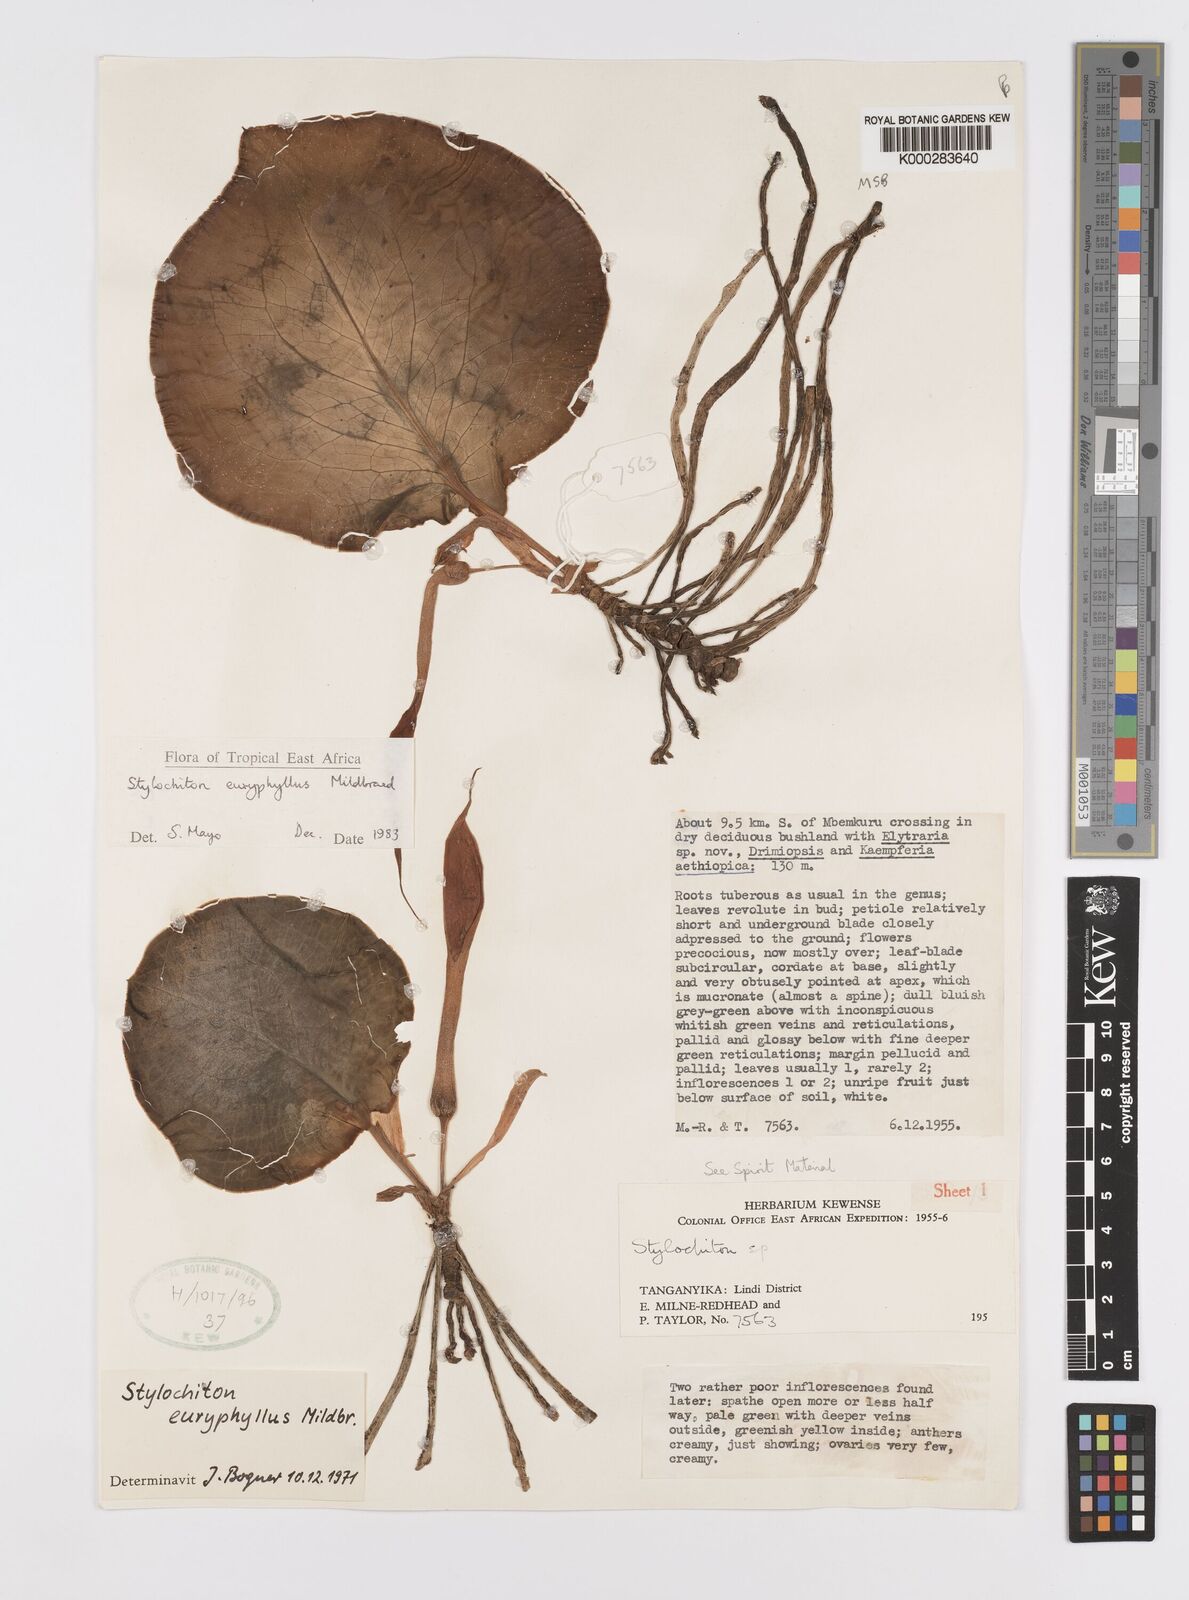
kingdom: Plantae
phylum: Tracheophyta
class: Liliopsida
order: Alismatales
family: Araceae
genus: Stylochaeton
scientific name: Stylochaeton euryphyllum
